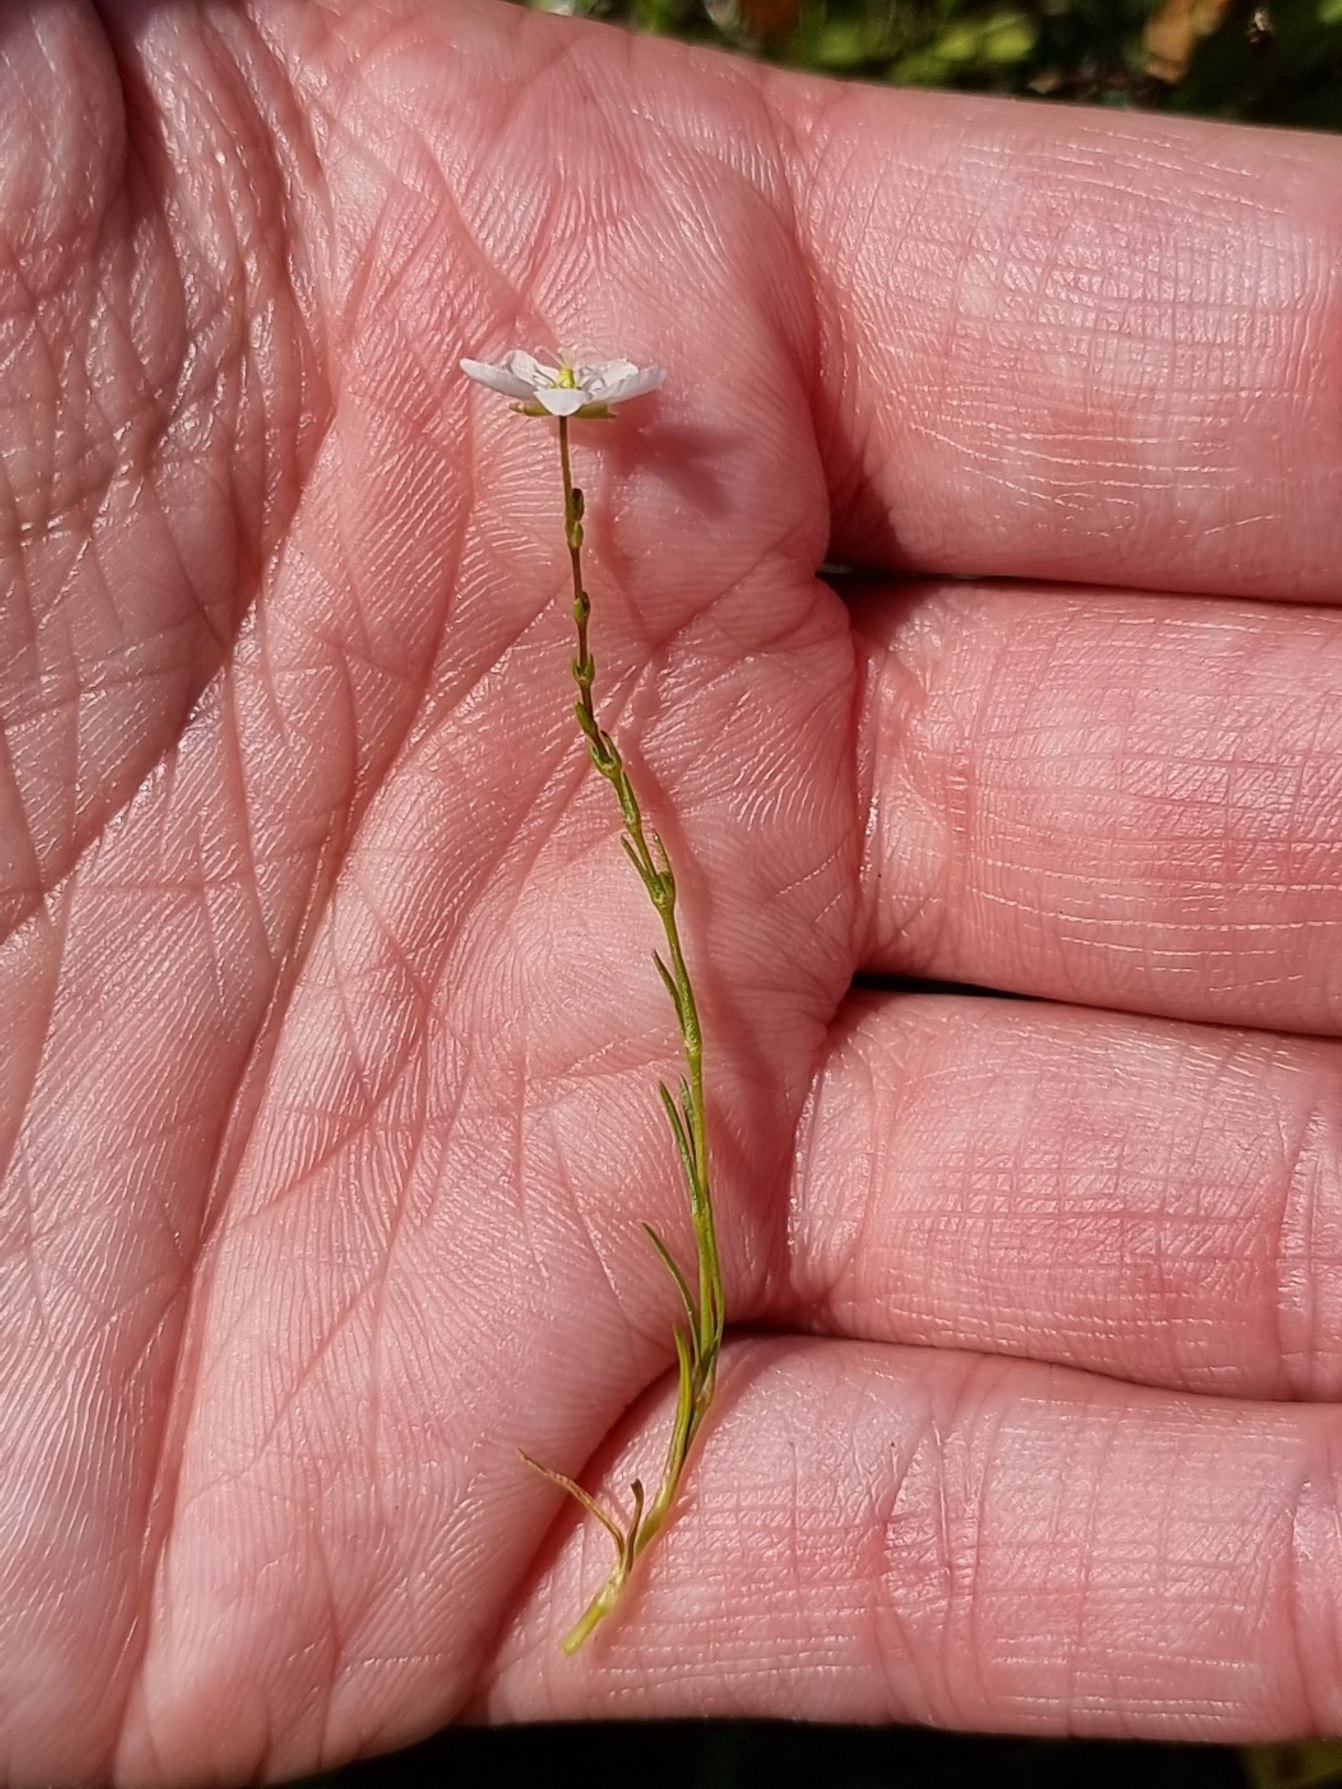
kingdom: Plantae
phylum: Tracheophyta
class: Magnoliopsida
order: Caryophyllales
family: Caryophyllaceae
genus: Sagina
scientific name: Sagina nodosa
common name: Knude-firling
